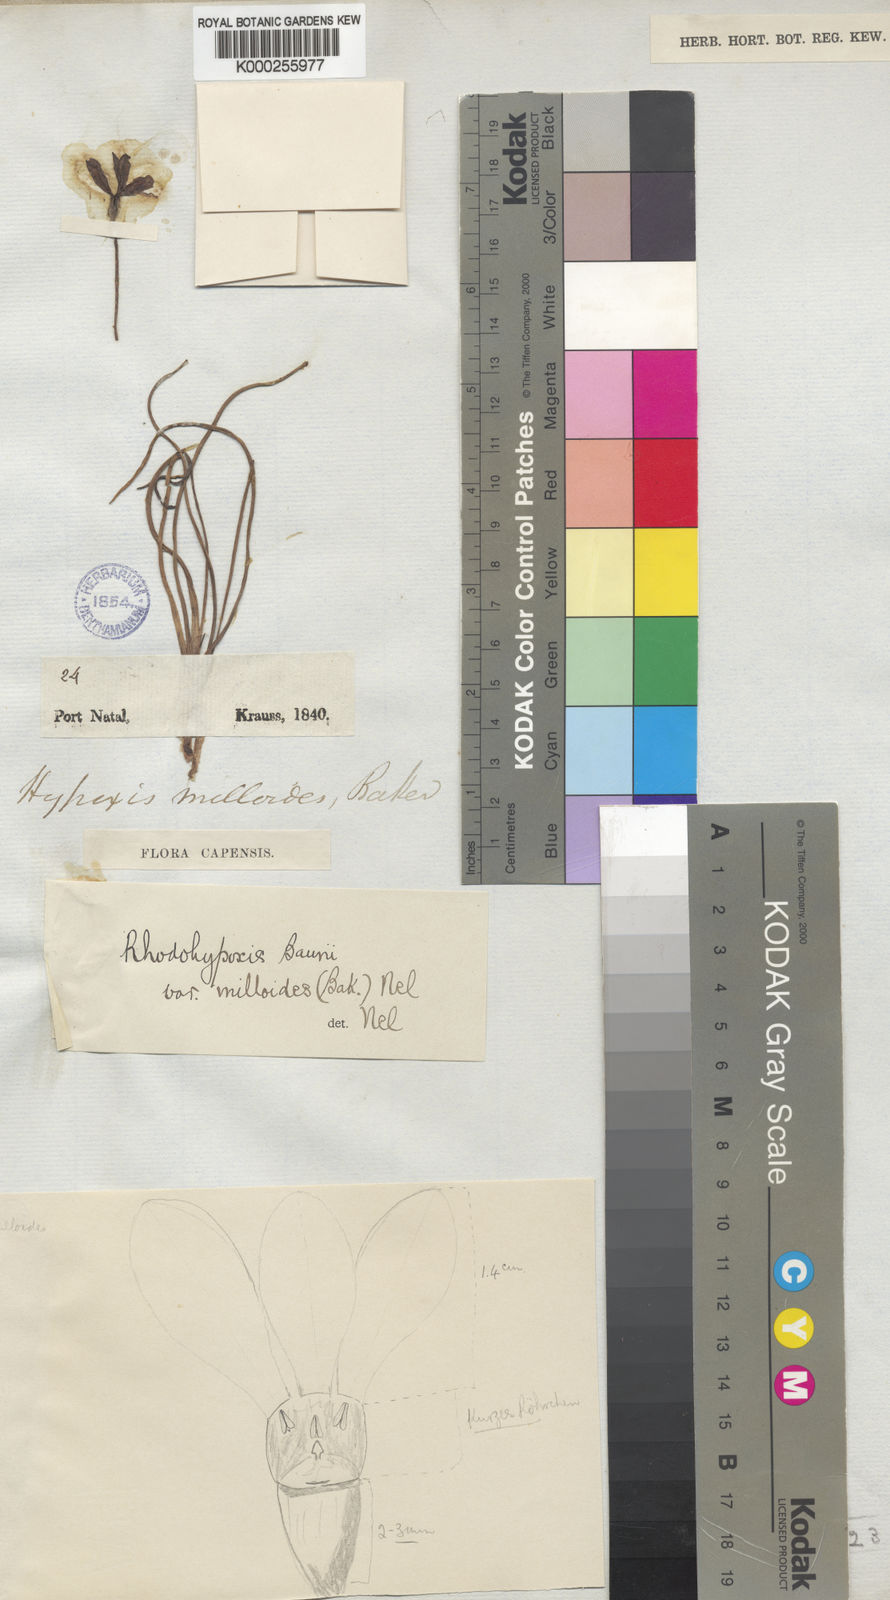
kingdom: Plantae
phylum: Tracheophyta
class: Liliopsida
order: Asparagales
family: Hypoxidaceae
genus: Hypoxis
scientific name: Hypoxis milloides
